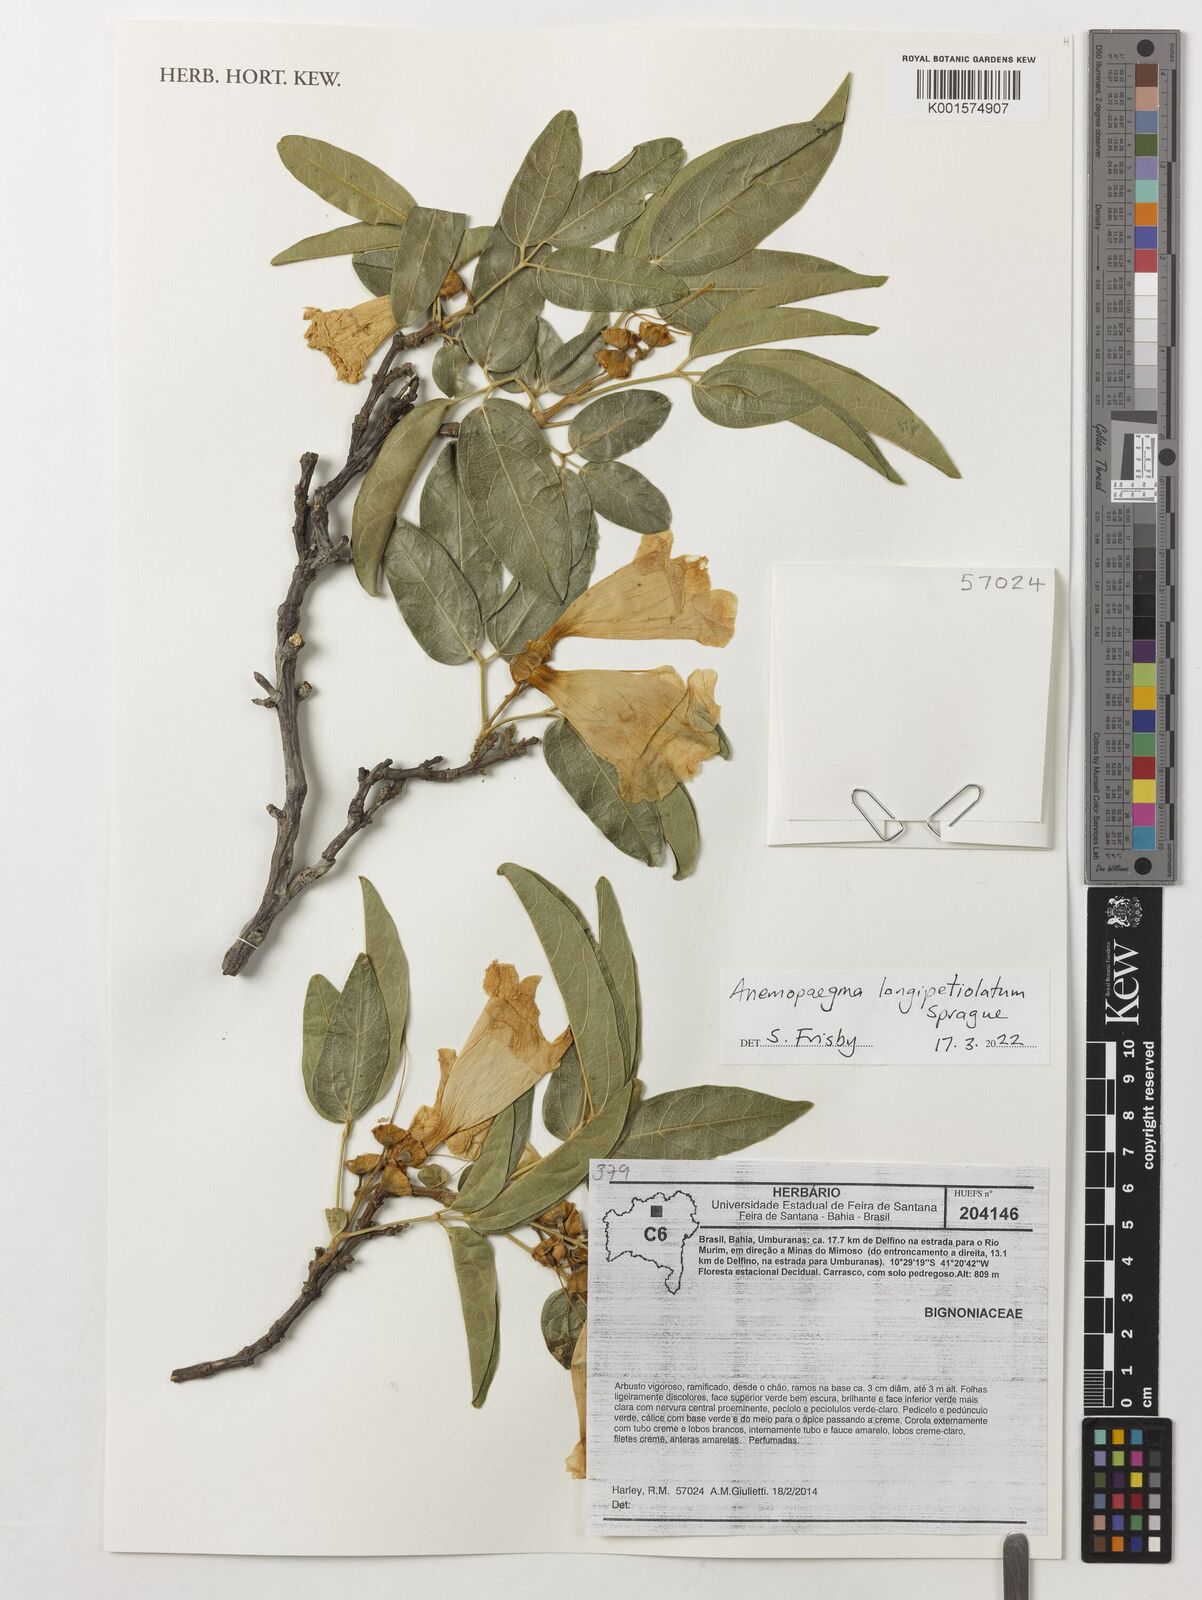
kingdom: Plantae
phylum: Tracheophyta
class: Magnoliopsida
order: Lamiales
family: Bignoniaceae
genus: Anemopaegma
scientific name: Anemopaegma longipetiolatum
